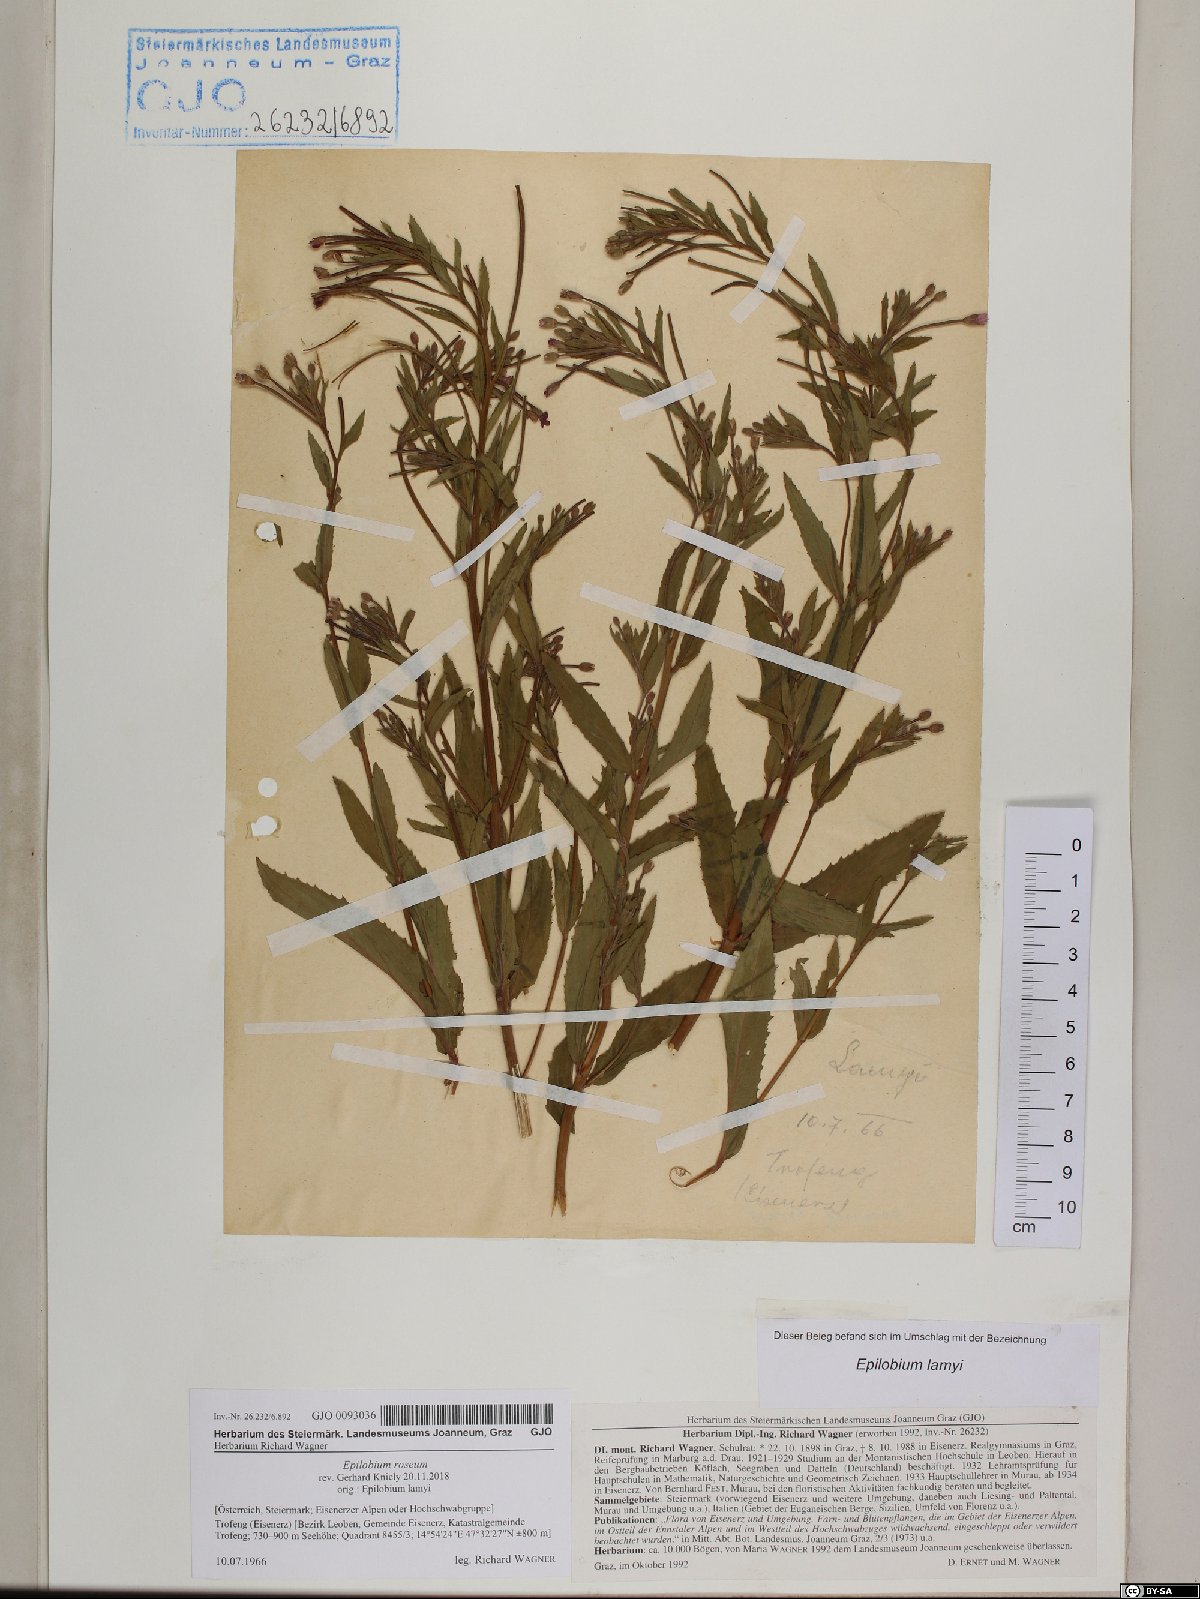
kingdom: Plantae
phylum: Tracheophyta
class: Magnoliopsida
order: Myrtales
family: Onagraceae
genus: Epilobium
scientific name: Epilobium roseum
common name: Pale willowherb
